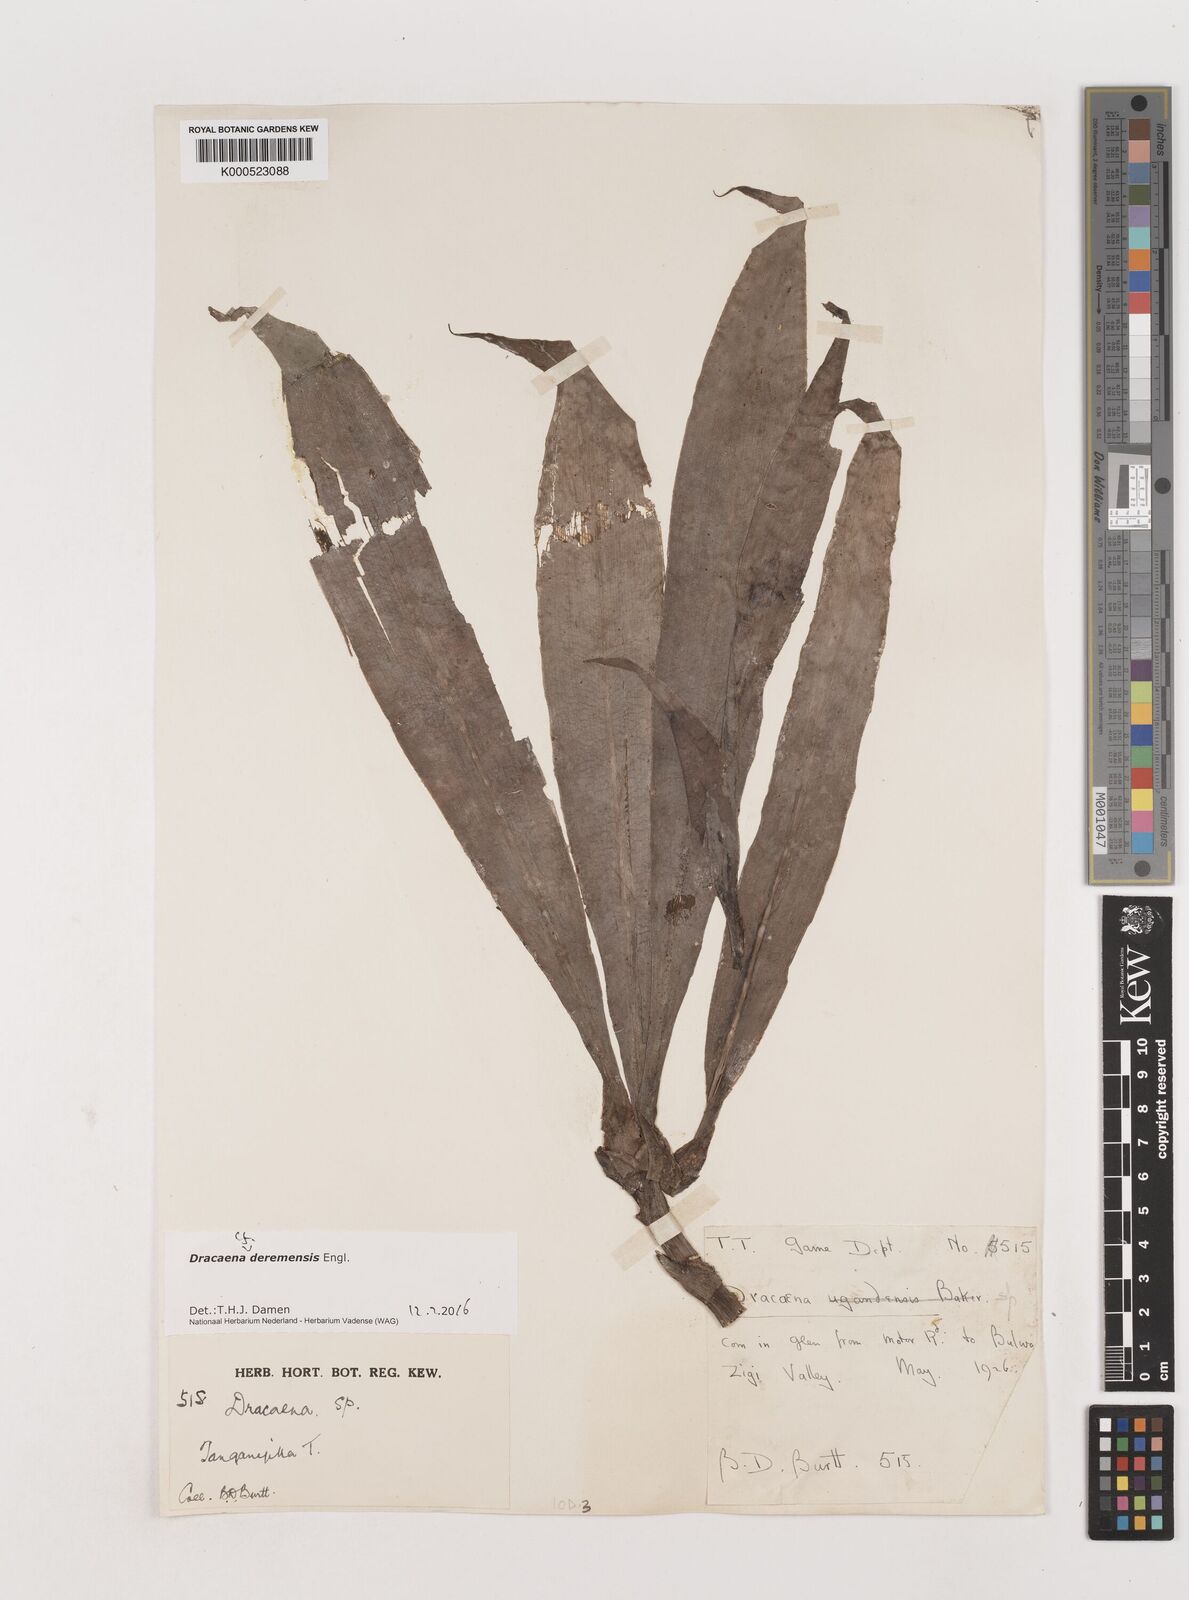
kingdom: Plantae
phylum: Tracheophyta
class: Liliopsida
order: Asparagales
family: Asparagaceae
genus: Dracaena
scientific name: Dracaena fragrans
